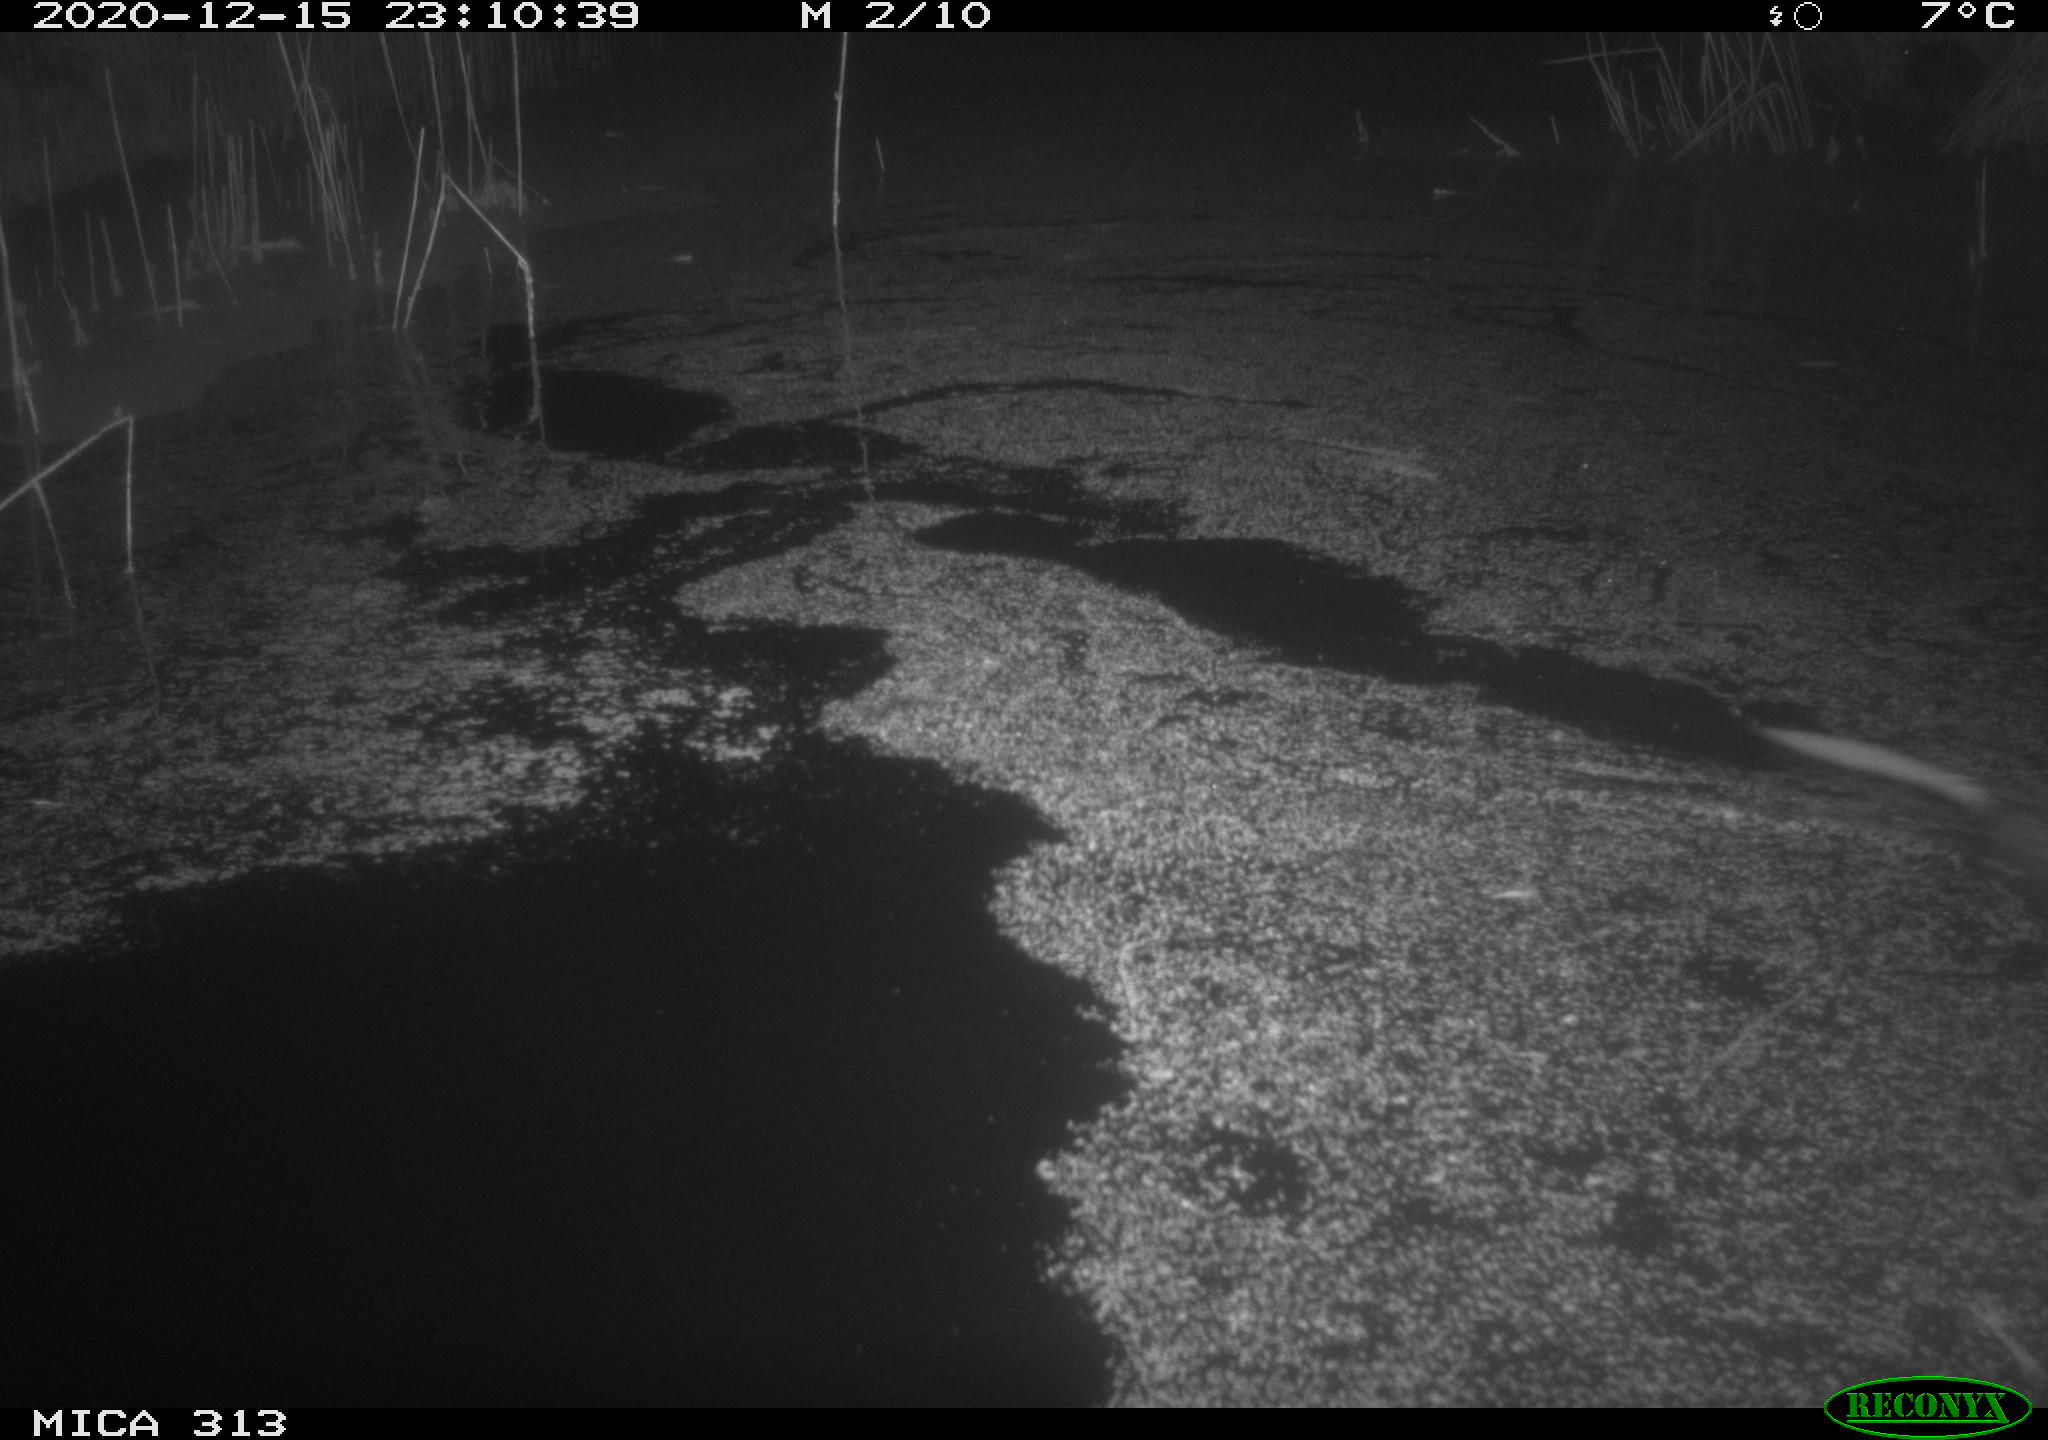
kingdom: Animalia
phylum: Chordata
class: Mammalia
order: Rodentia
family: Cricetidae
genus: Ondatra
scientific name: Ondatra zibethicus
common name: Muskrat
